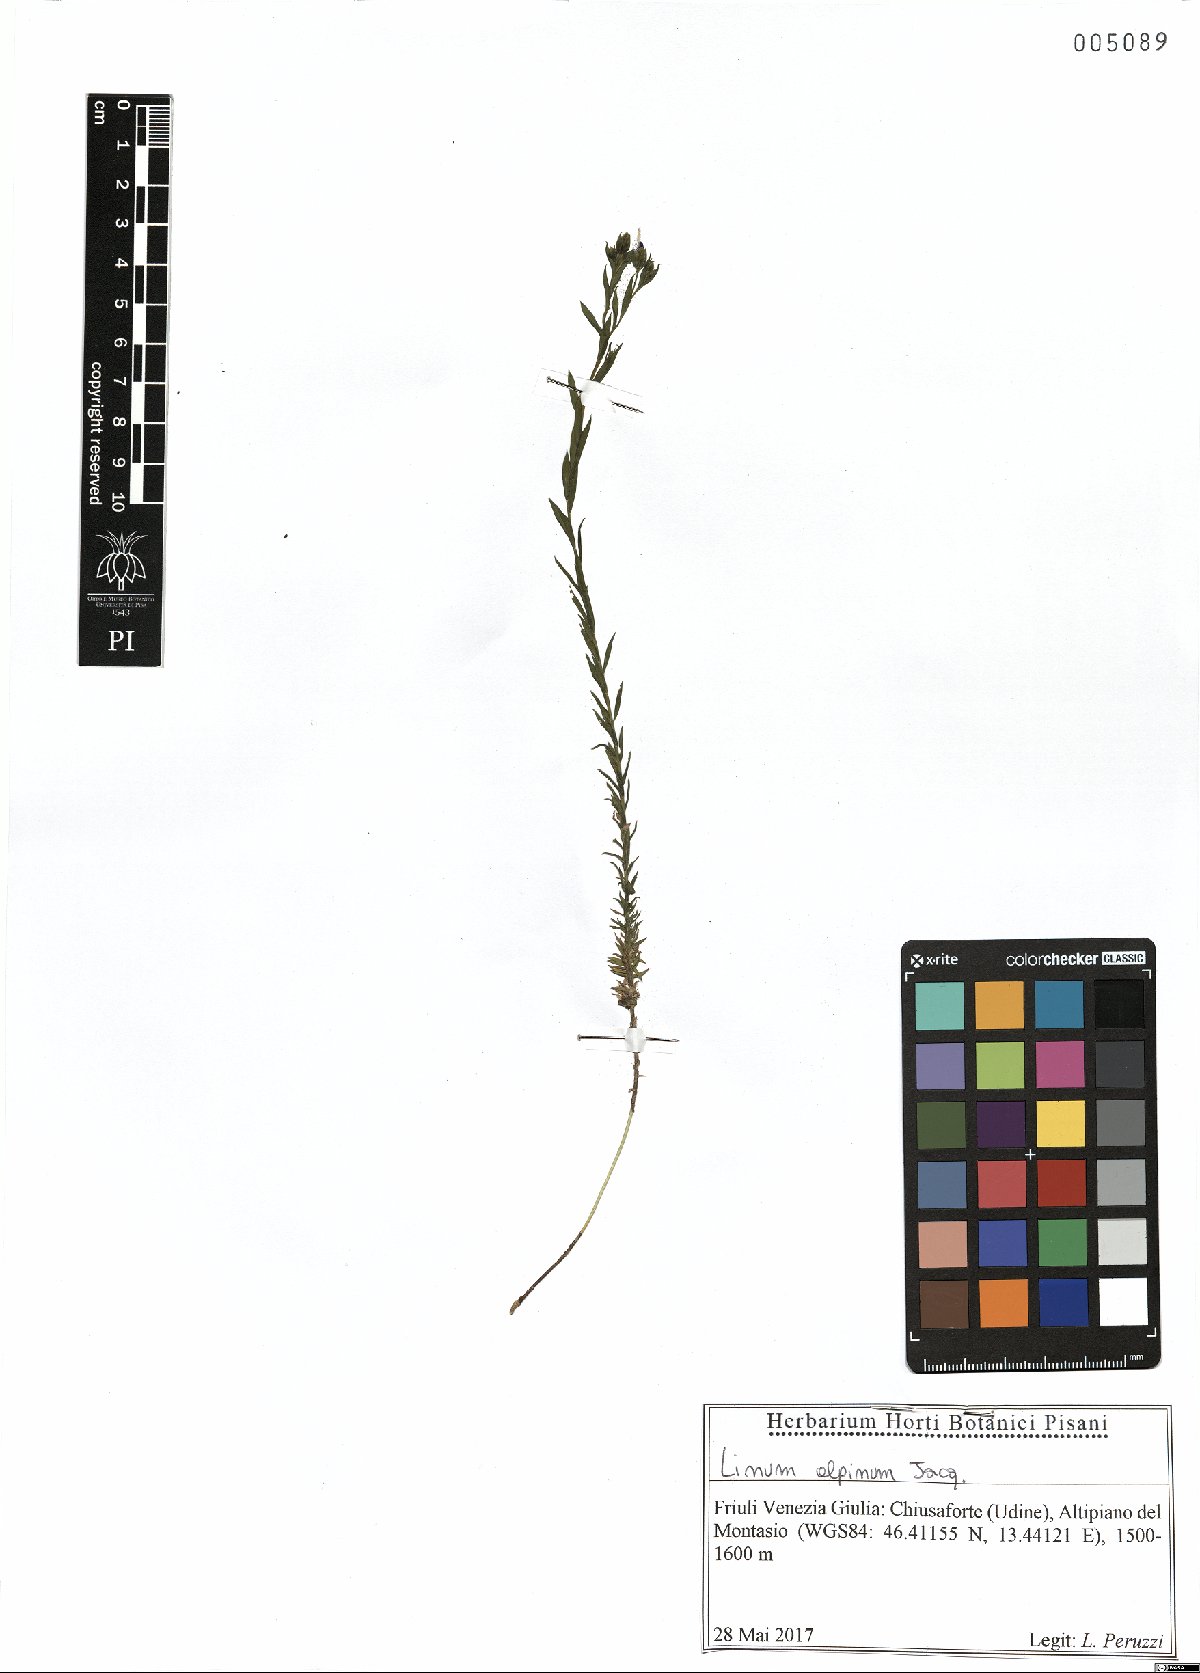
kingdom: Plantae
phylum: Tracheophyta
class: Magnoliopsida
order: Malpighiales
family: Linaceae
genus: Linum
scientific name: Linum alpinum
